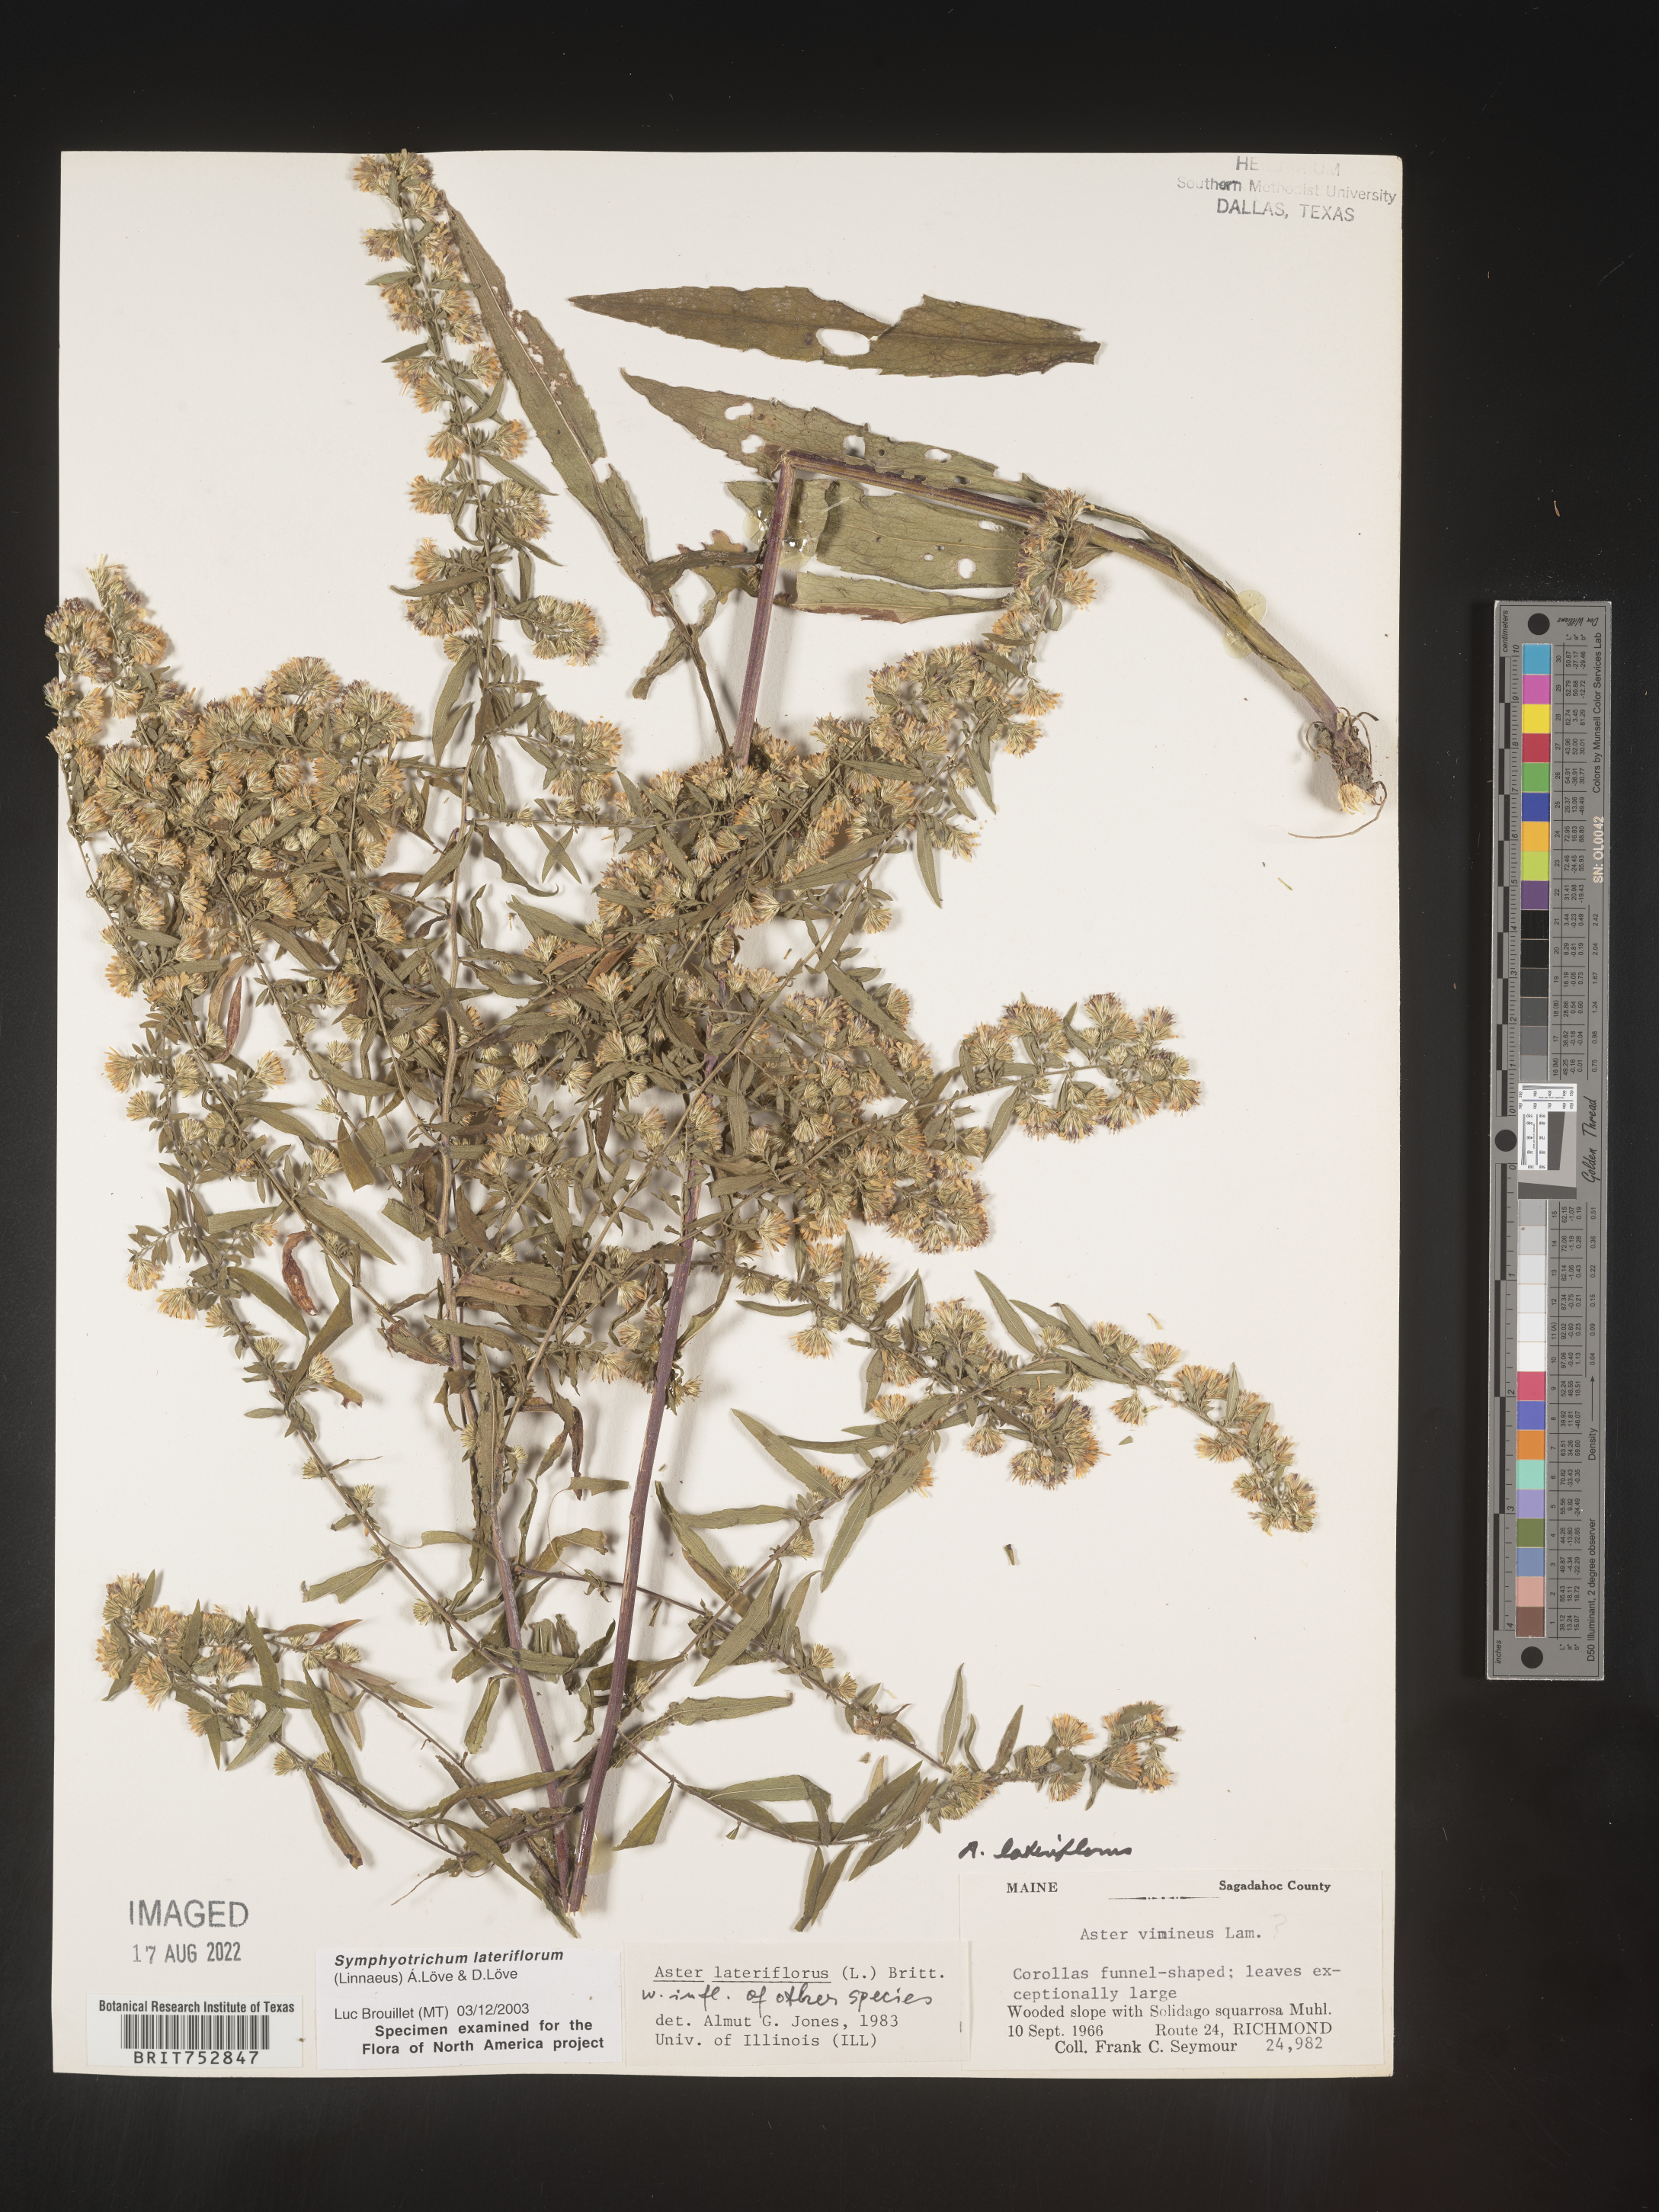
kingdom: Plantae
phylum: Tracheophyta
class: Magnoliopsida
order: Asterales
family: Asteraceae
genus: Symphyotrichum
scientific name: Symphyotrichum lateriflorum
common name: Calico aster
